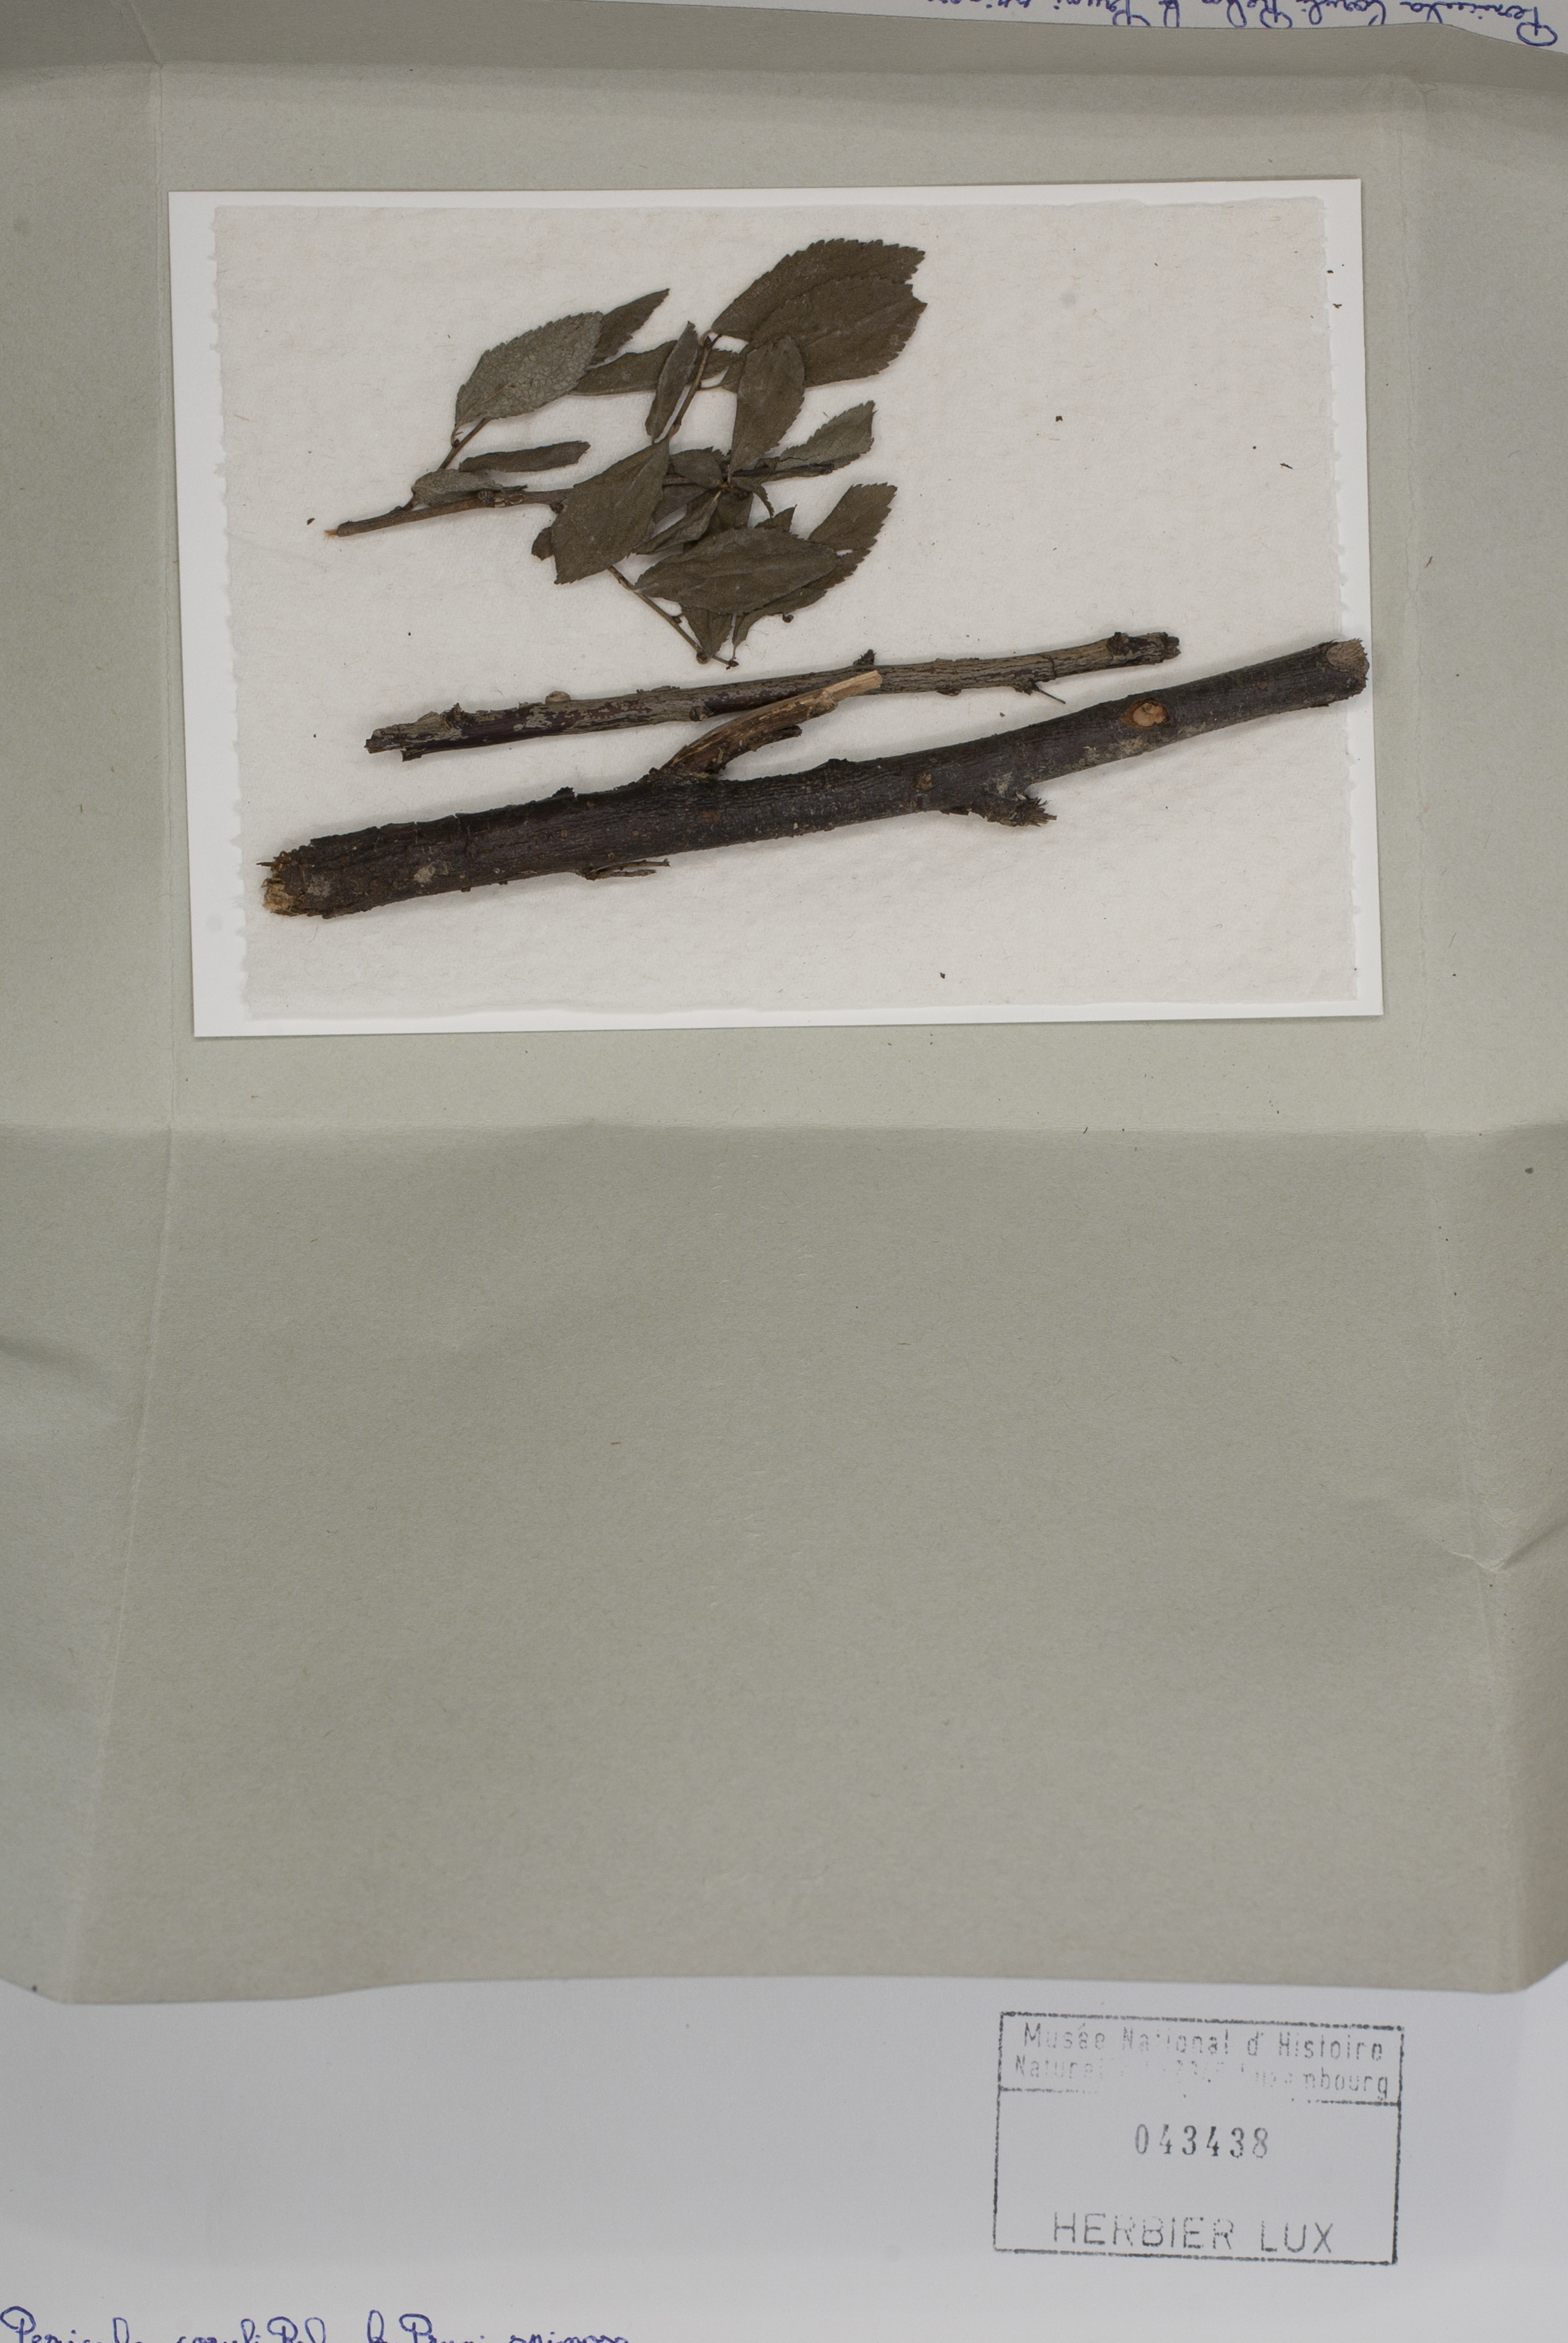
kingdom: Fungi
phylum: Ascomycota
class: Leotiomycetes
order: Helotiales
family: Dermateaceae
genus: Pezicula
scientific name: Pezicula coryli
